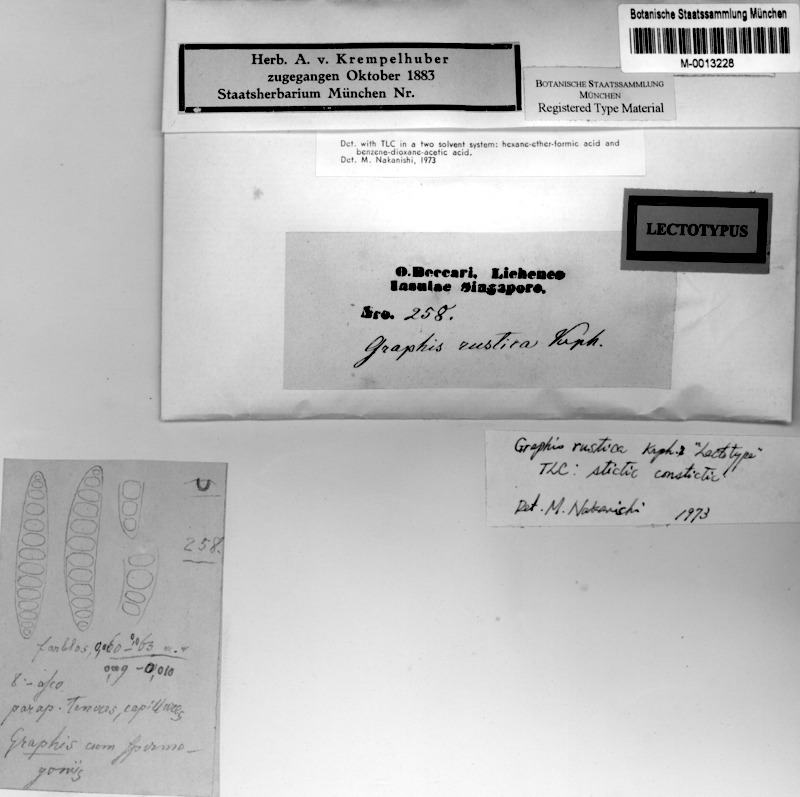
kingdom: Fungi
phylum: Ascomycota
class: Lecanoromycetes
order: Ostropales
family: Graphidaceae
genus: Allographa
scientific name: Allographa rustica
